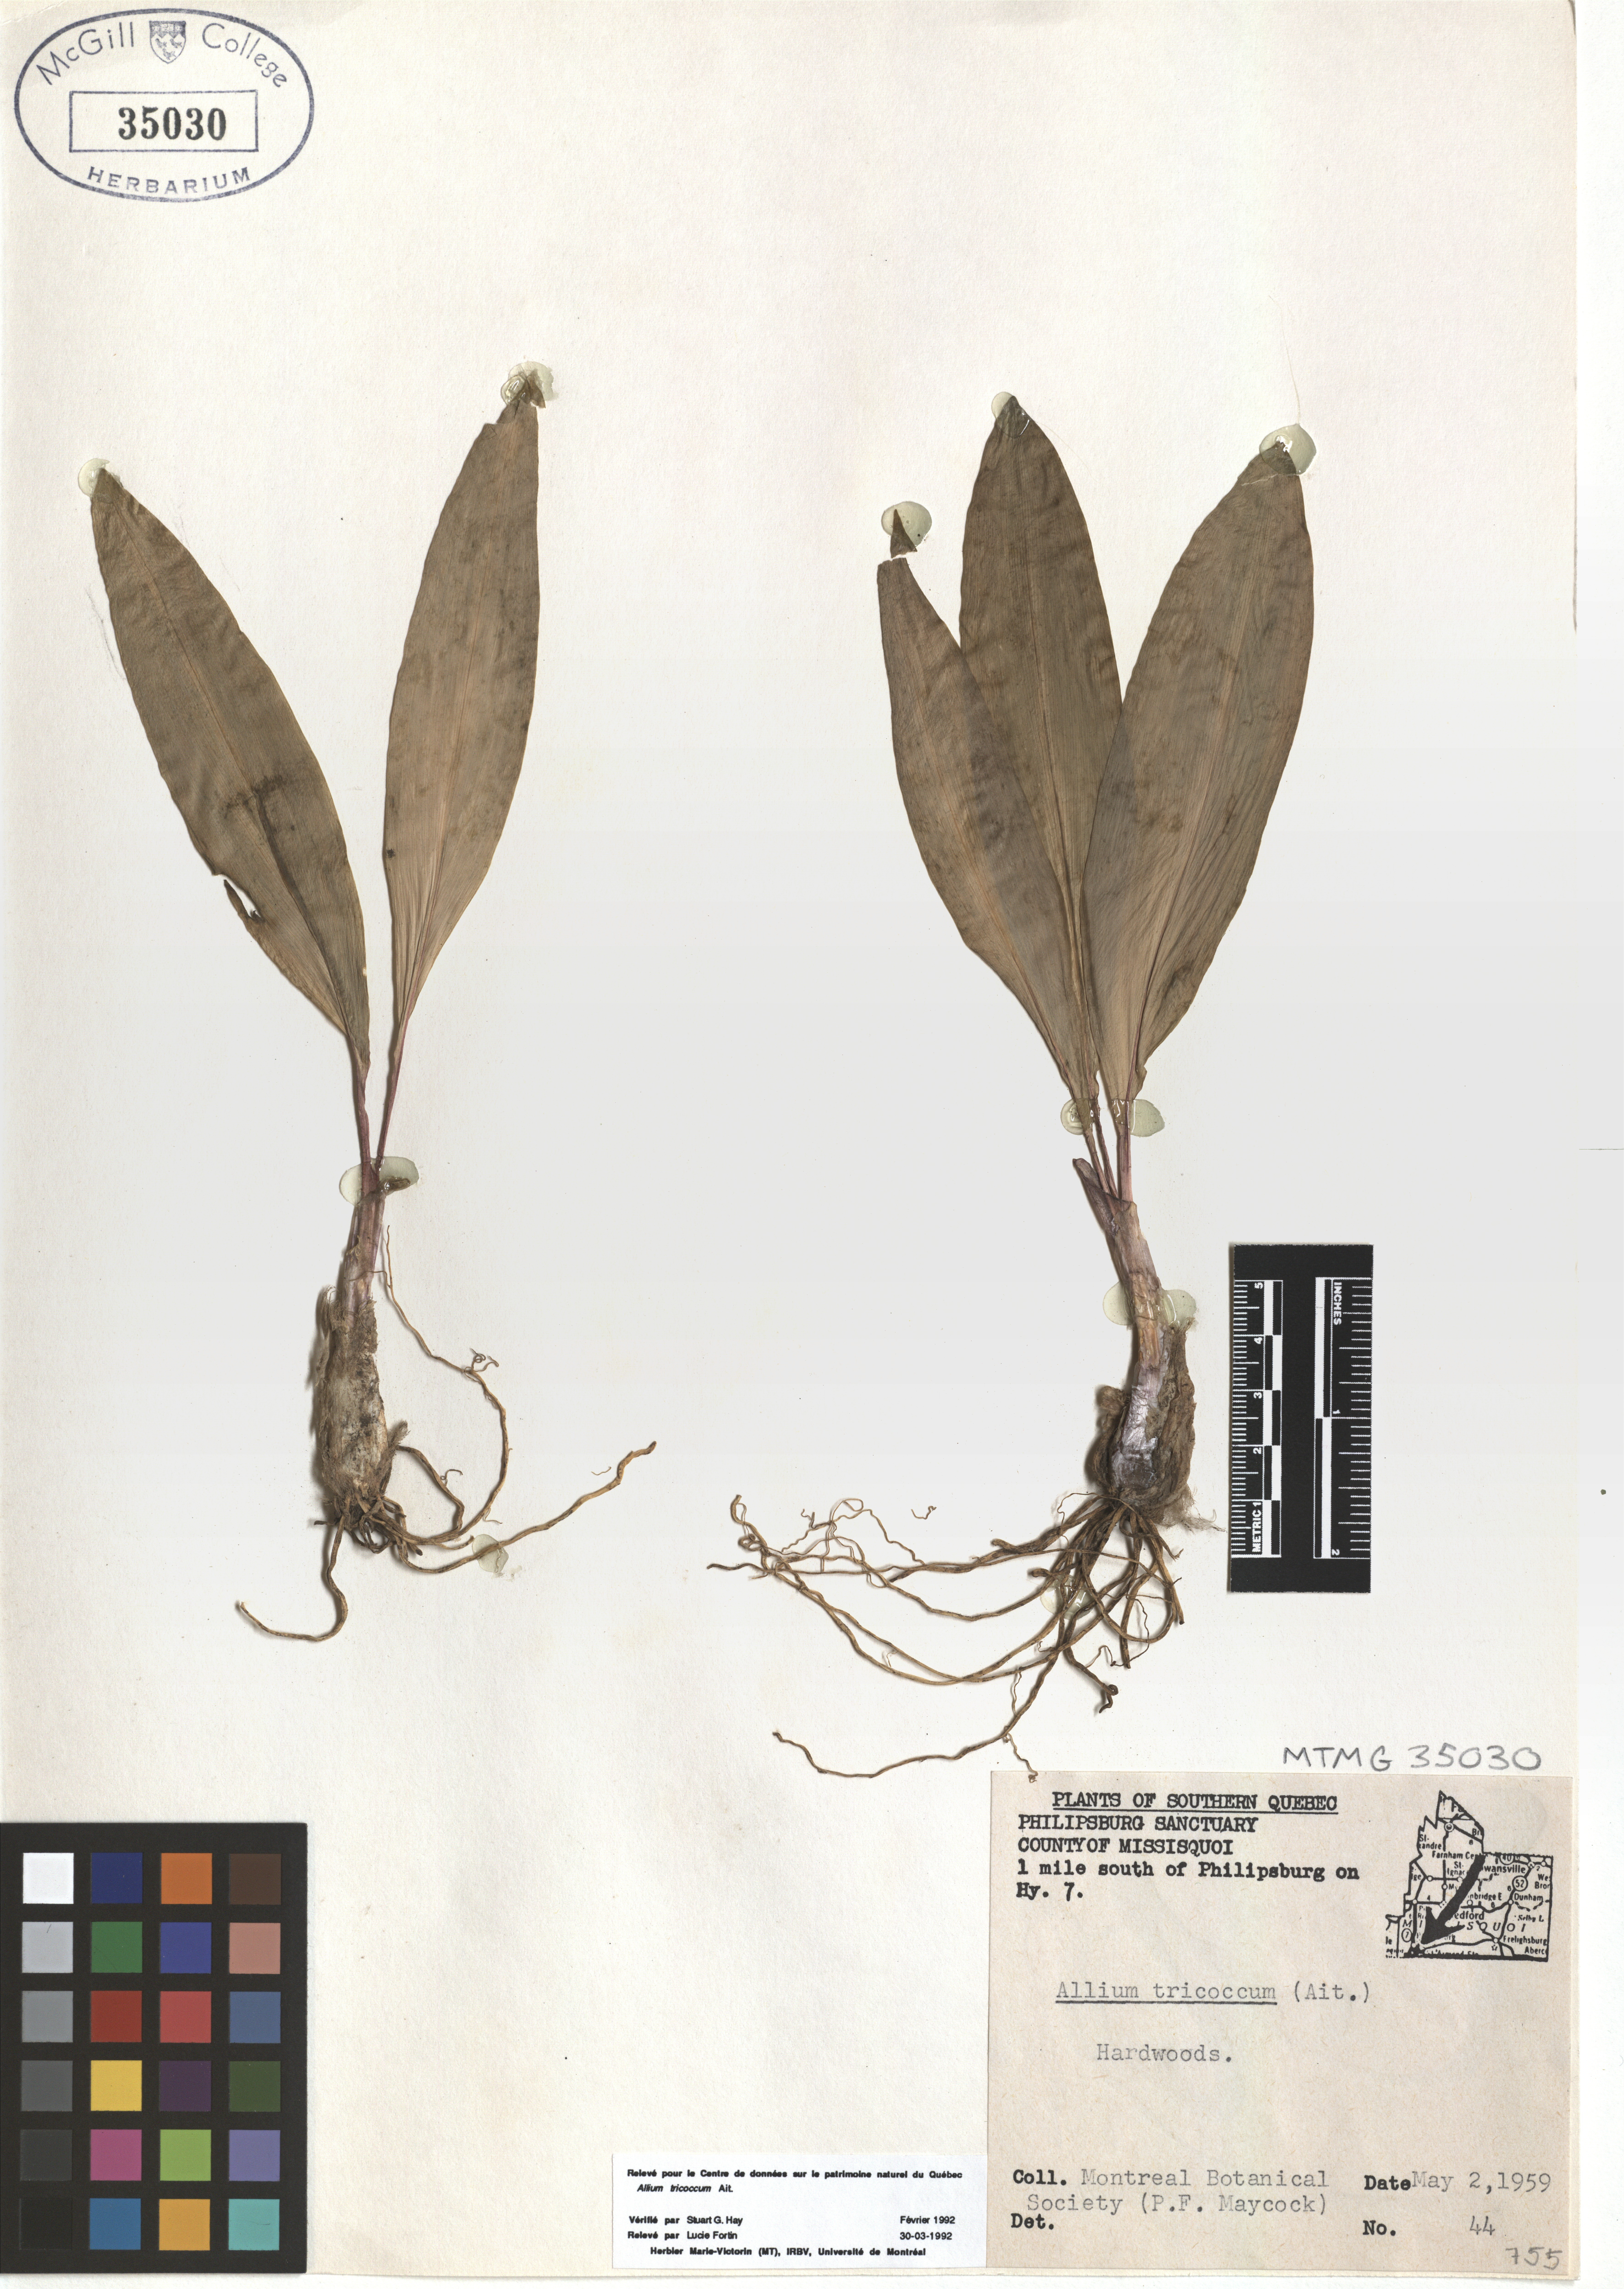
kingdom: Plantae
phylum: Tracheophyta
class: Liliopsida
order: Asparagales
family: Amaryllidaceae
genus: Allium
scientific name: Allium tricoccum
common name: Ramp
